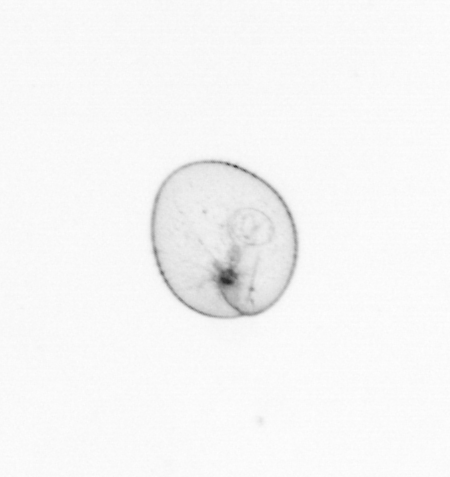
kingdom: Chromista
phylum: Myzozoa
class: Dinophyceae
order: Noctilucales
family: Noctilucaceae
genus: Noctiluca
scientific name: Noctiluca scintillans
